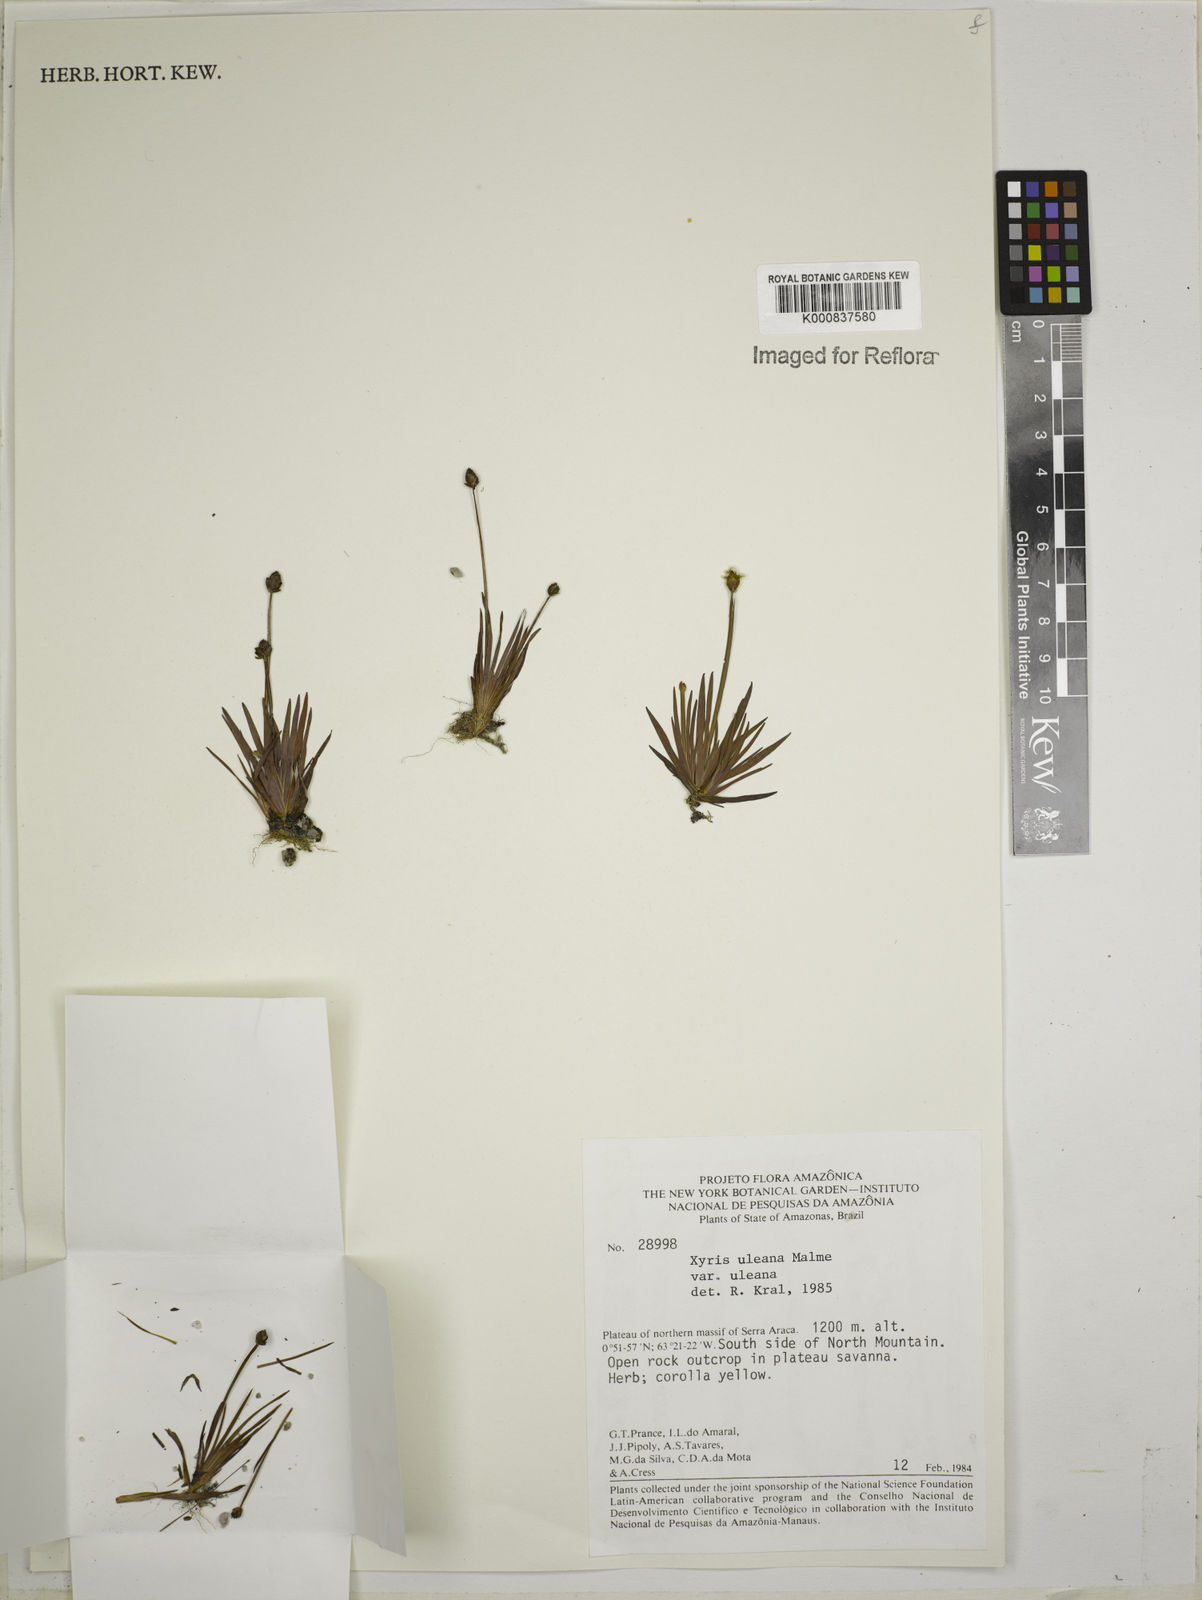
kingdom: Plantae
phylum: Tracheophyta
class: Liliopsida
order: Poales
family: Xyridaceae
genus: Xyris
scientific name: Xyris uleana
